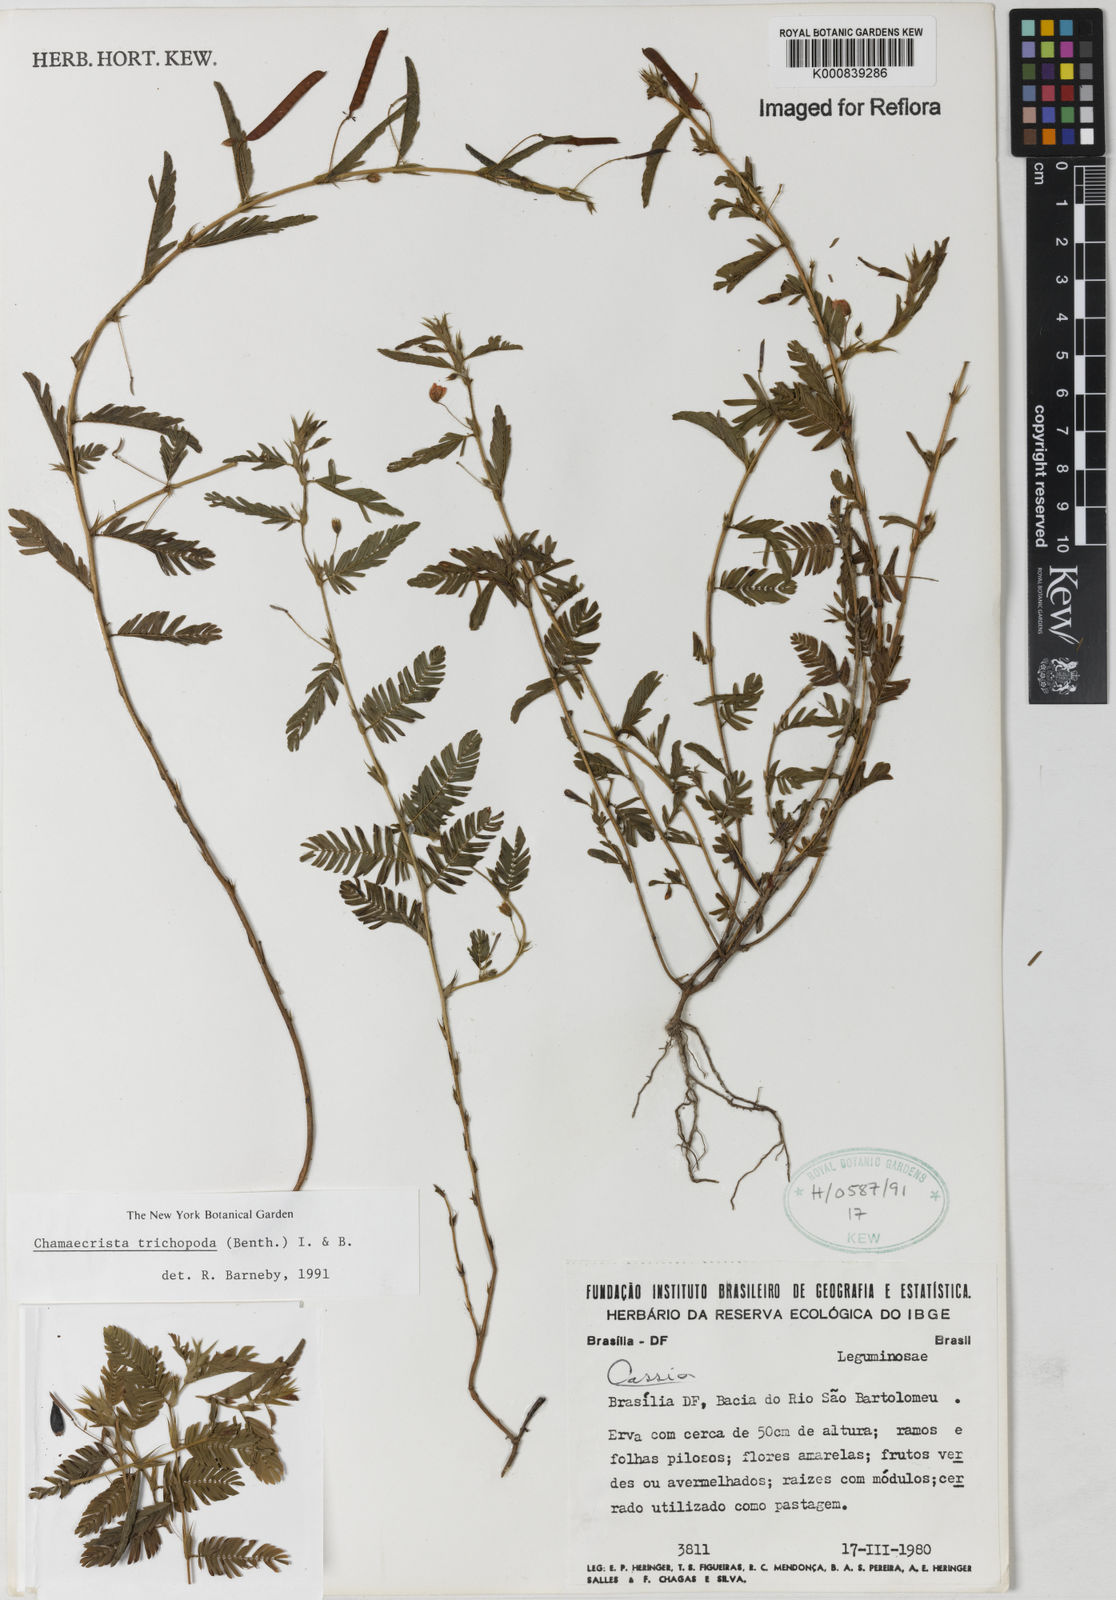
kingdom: Plantae
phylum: Tracheophyta
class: Magnoliopsida
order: Fabales
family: Fabaceae
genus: Chamaecrista
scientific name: Chamaecrista trichopoda
